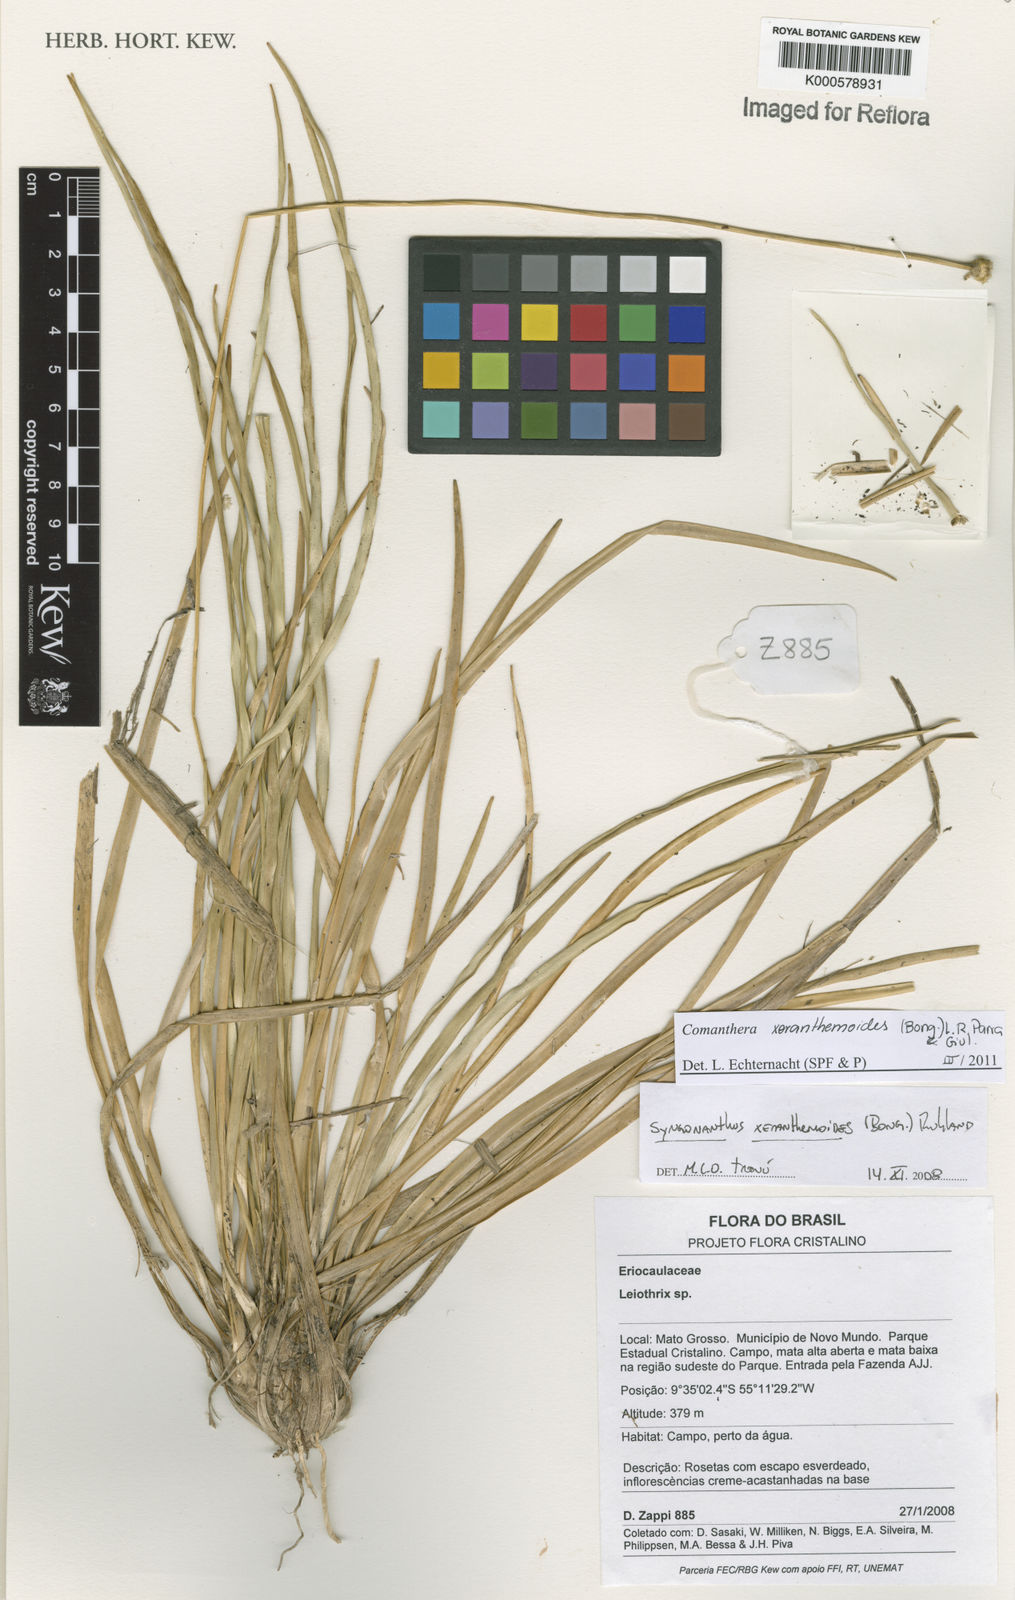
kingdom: Plantae
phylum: Tracheophyta
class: Liliopsida
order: Poales
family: Eriocaulaceae
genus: Syngonanthus
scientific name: Syngonanthus
